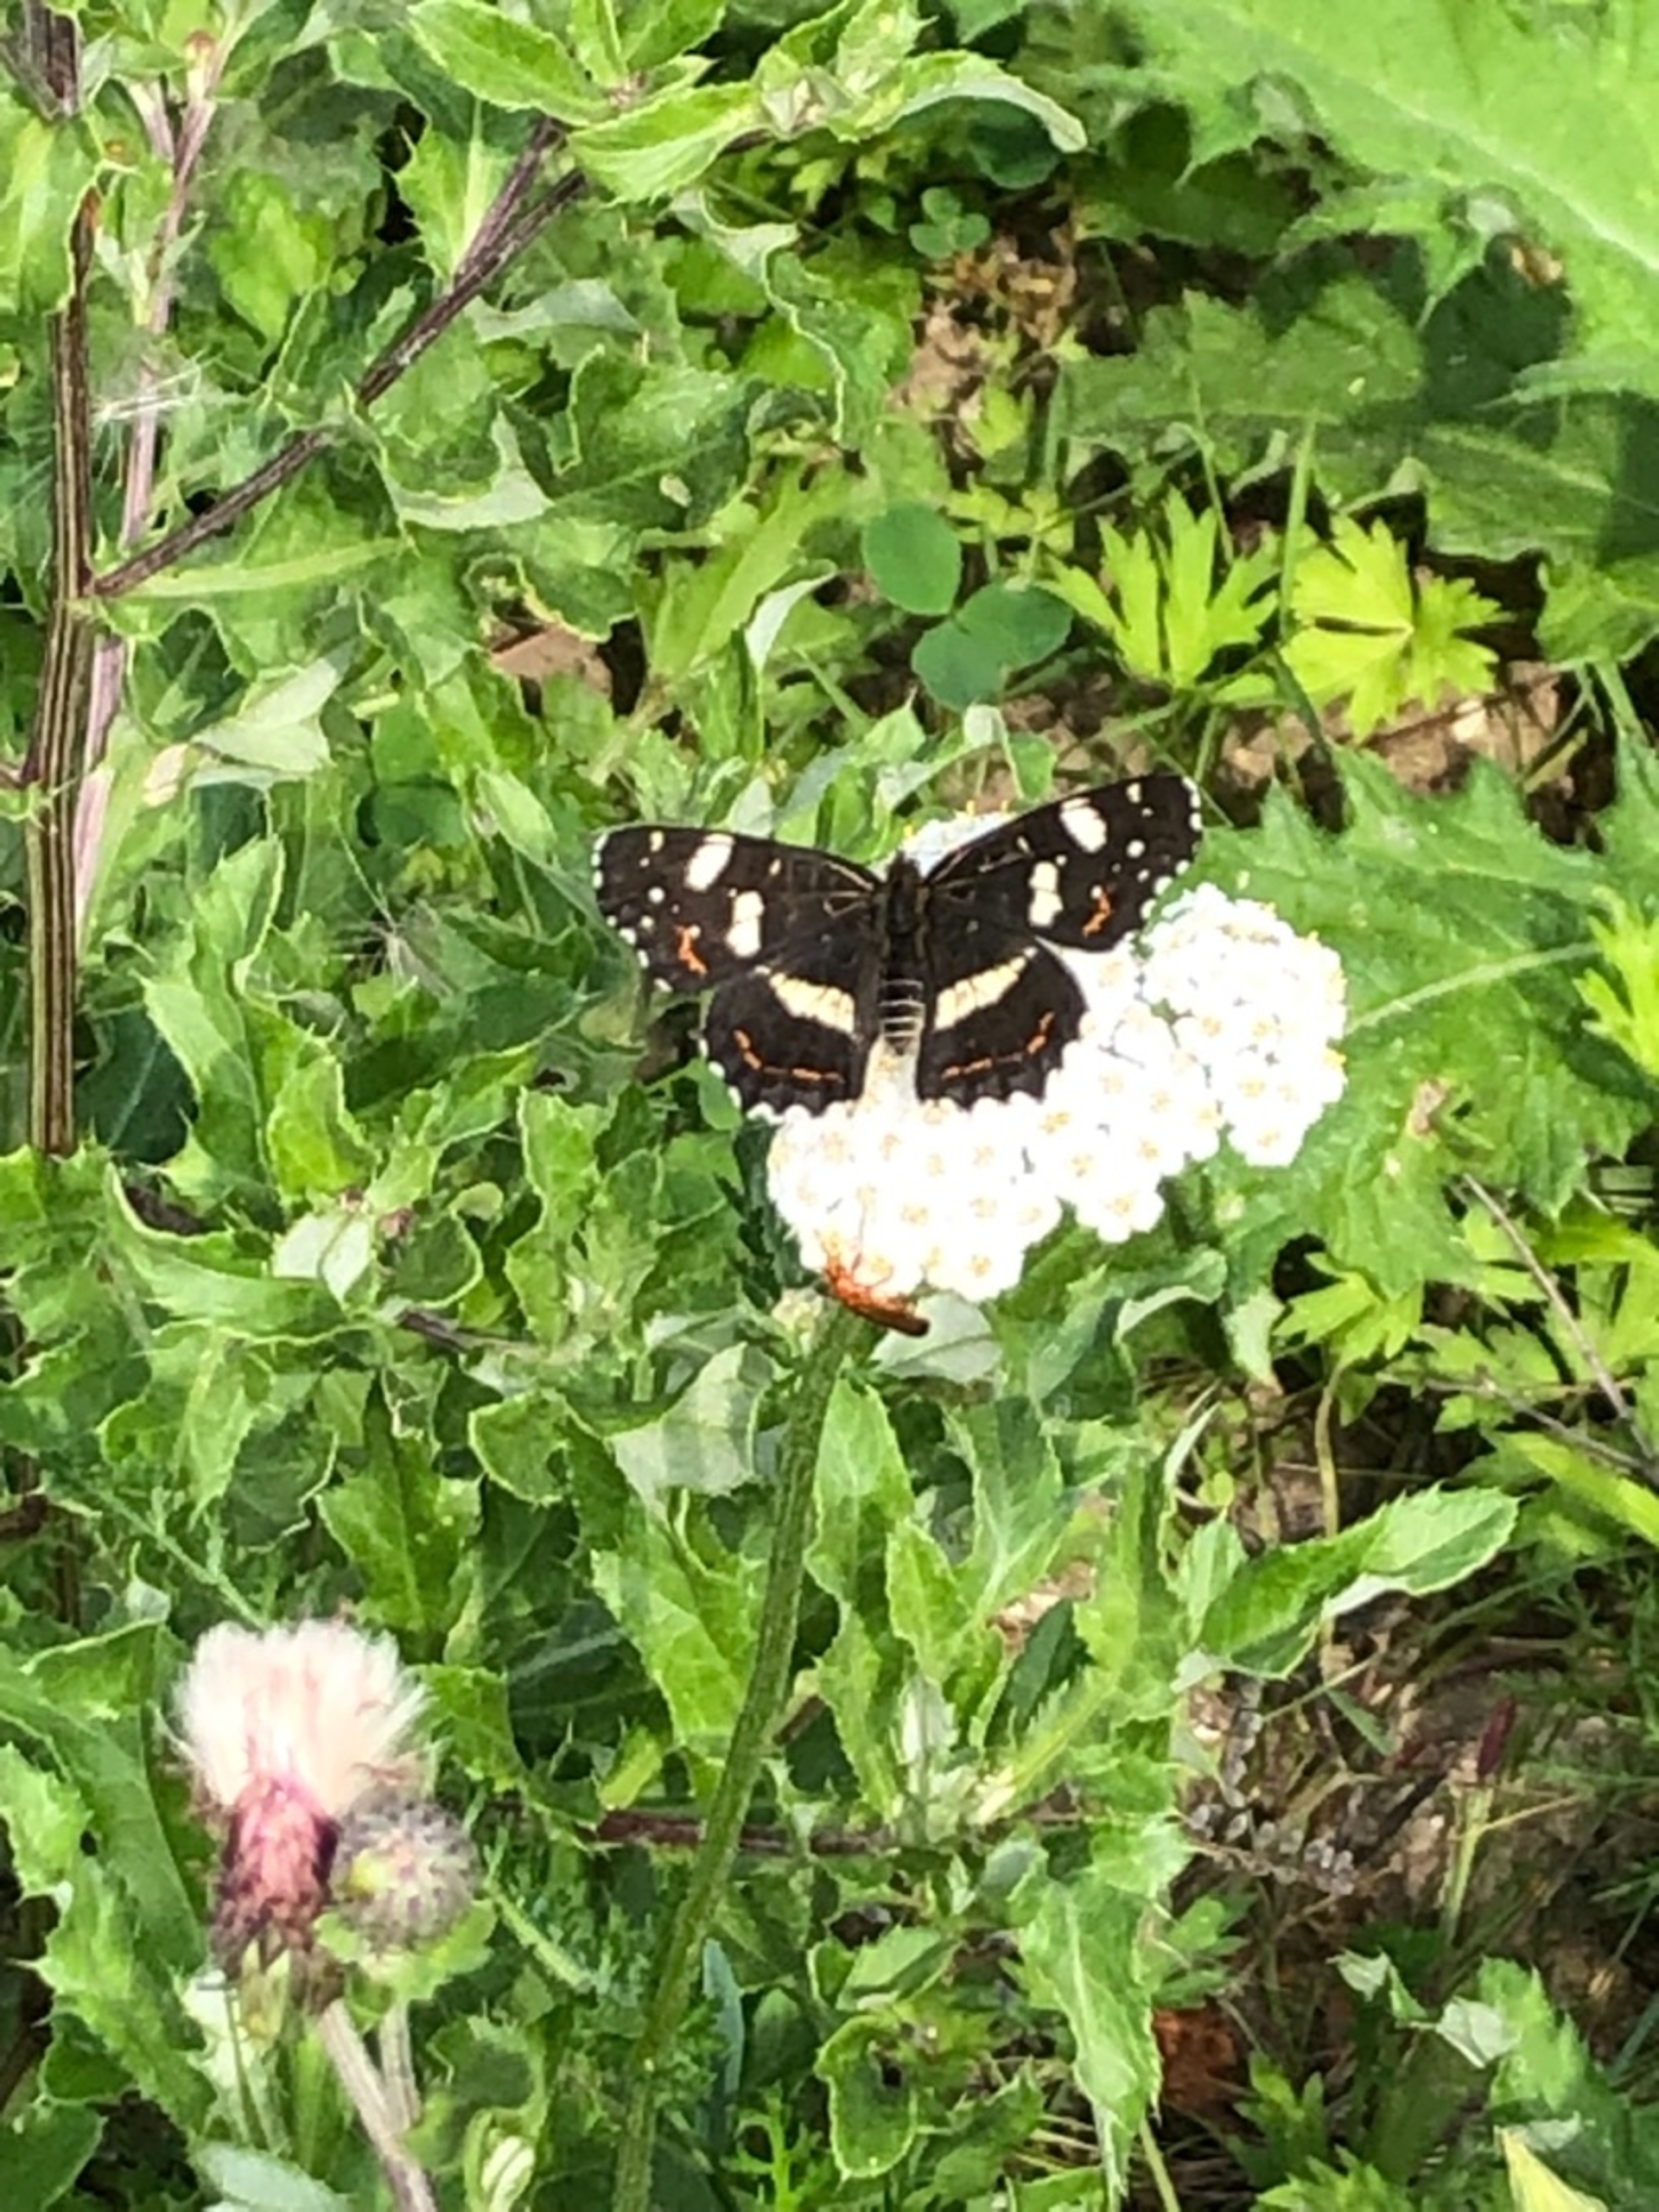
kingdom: Animalia
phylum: Arthropoda
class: Insecta
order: Lepidoptera
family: Nymphalidae
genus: Araschnia
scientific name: Araschnia levana
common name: Nældesommerfugl
